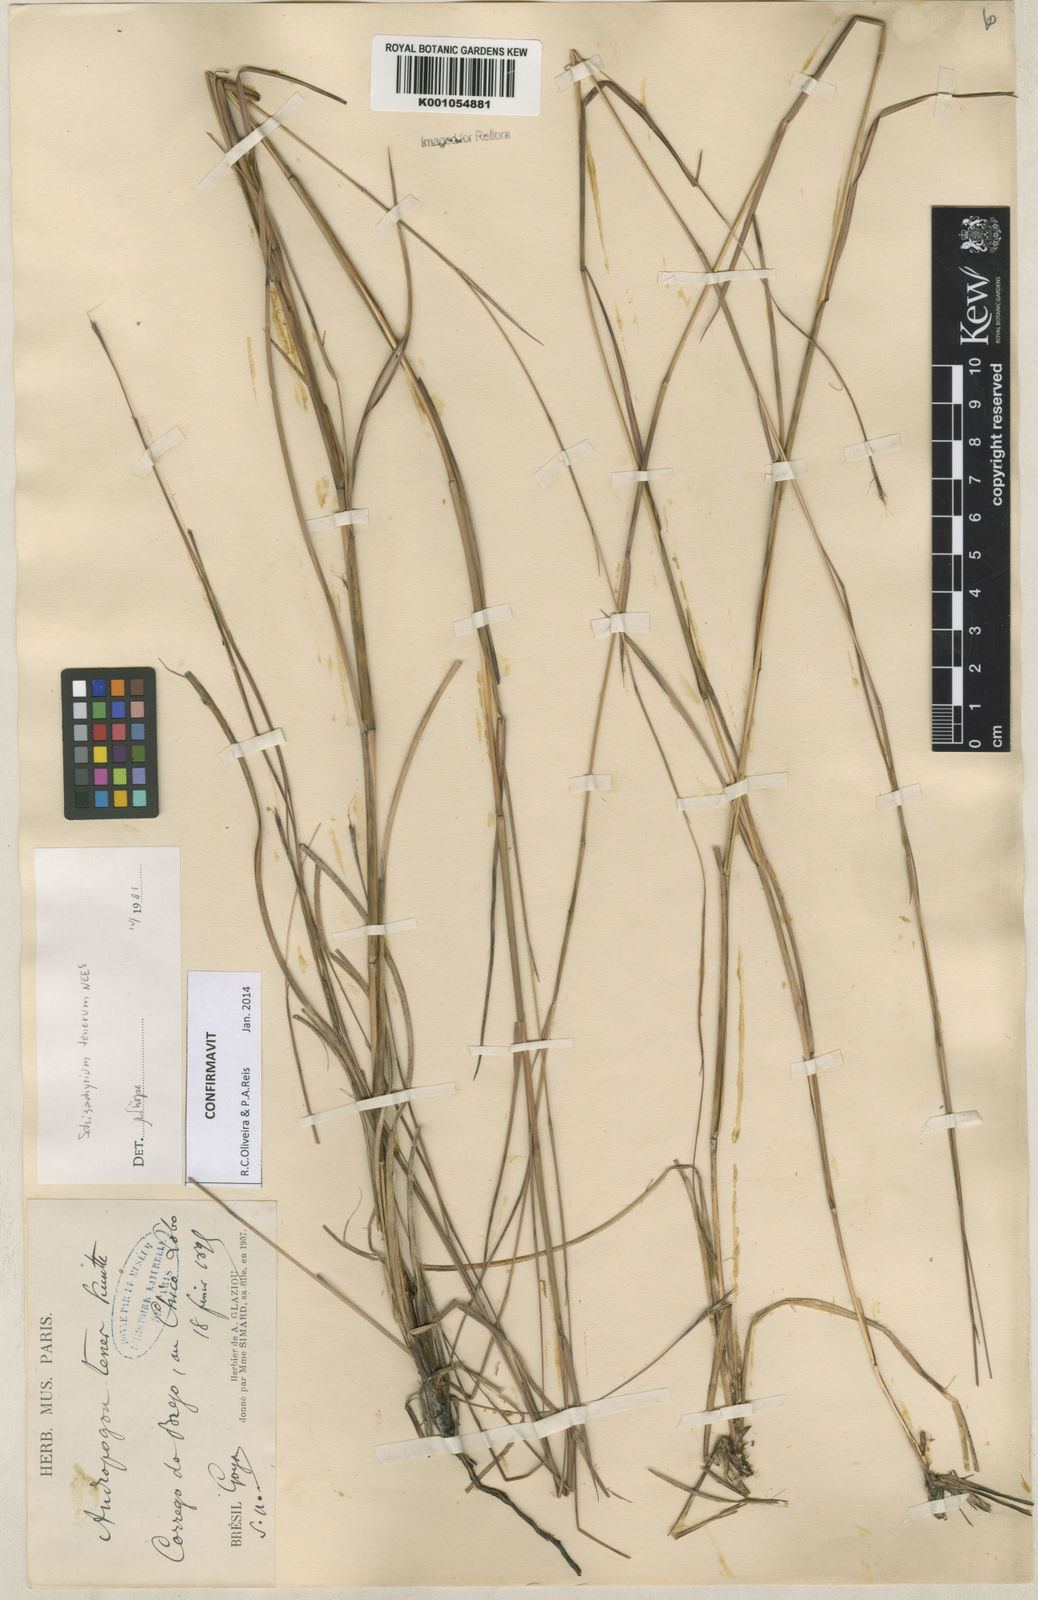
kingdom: Plantae
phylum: Tracheophyta
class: Liliopsida
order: Poales
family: Poaceae
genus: Andropogon
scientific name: Andropogon tener
